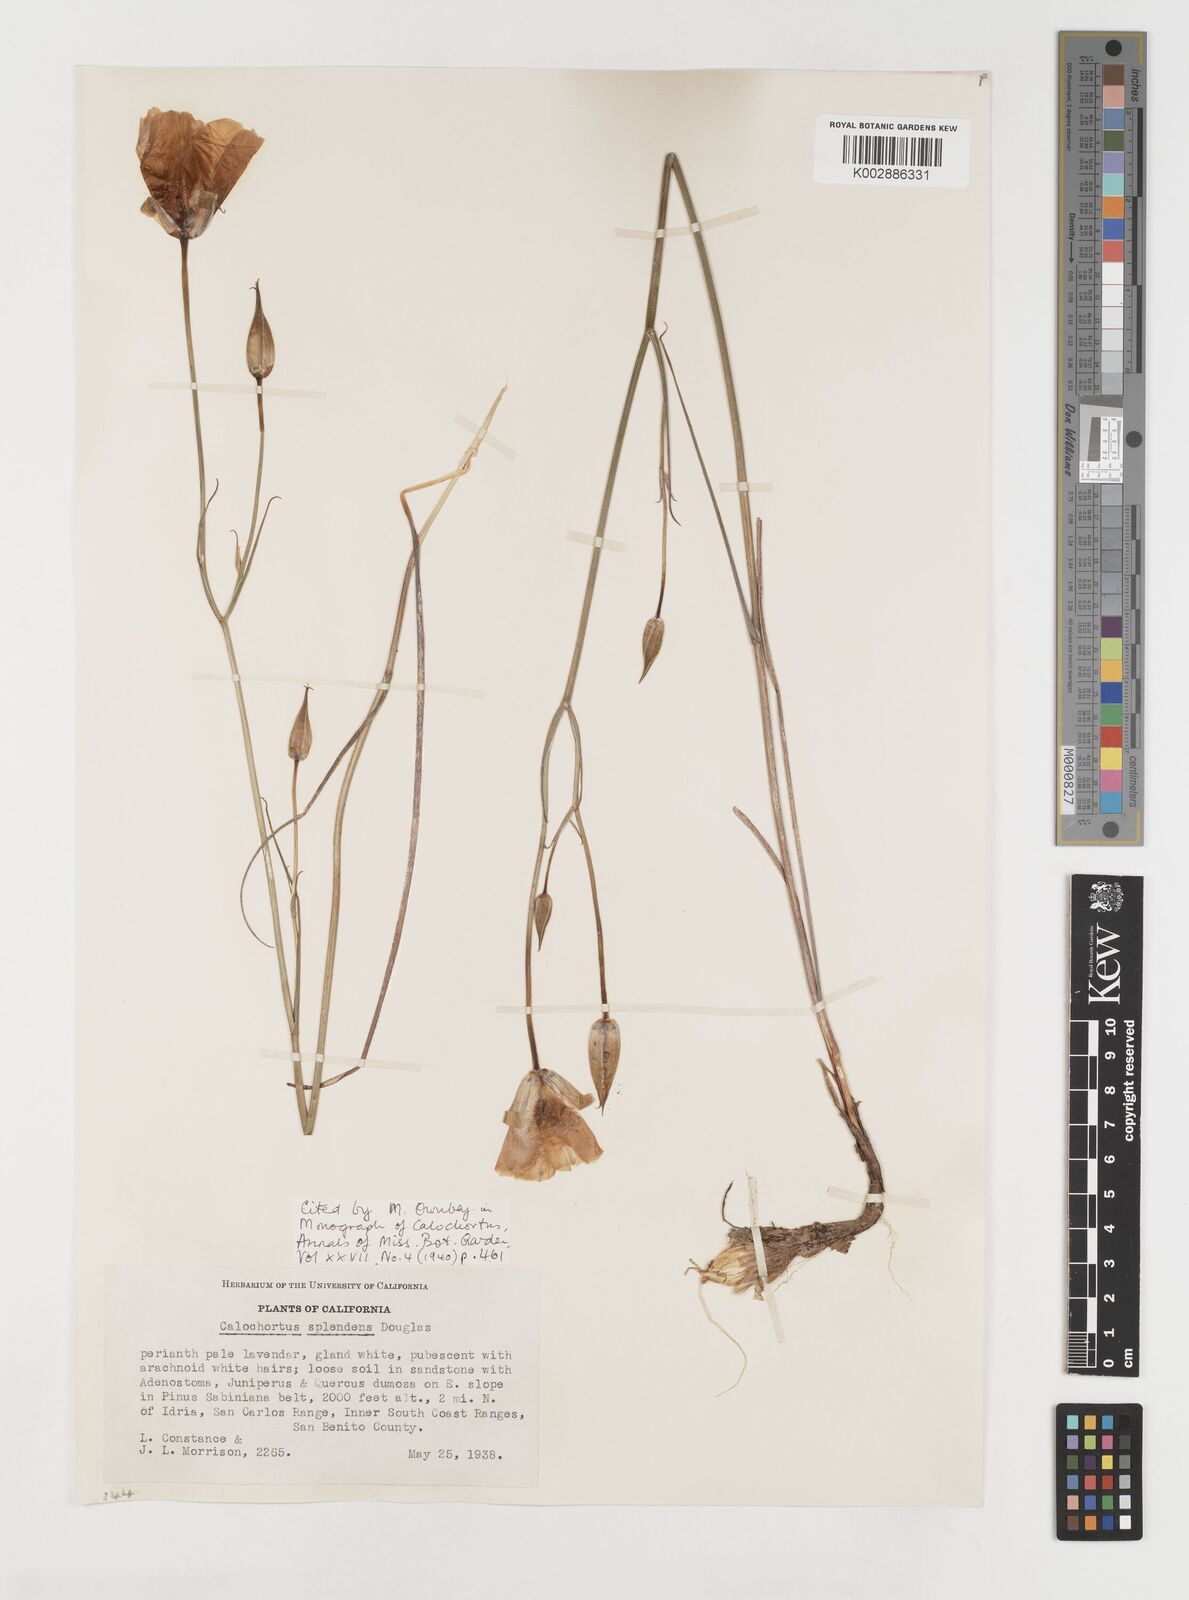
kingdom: Plantae
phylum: Tracheophyta
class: Liliopsida
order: Liliales
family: Liliaceae
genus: Calochortus
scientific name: Calochortus splendens
